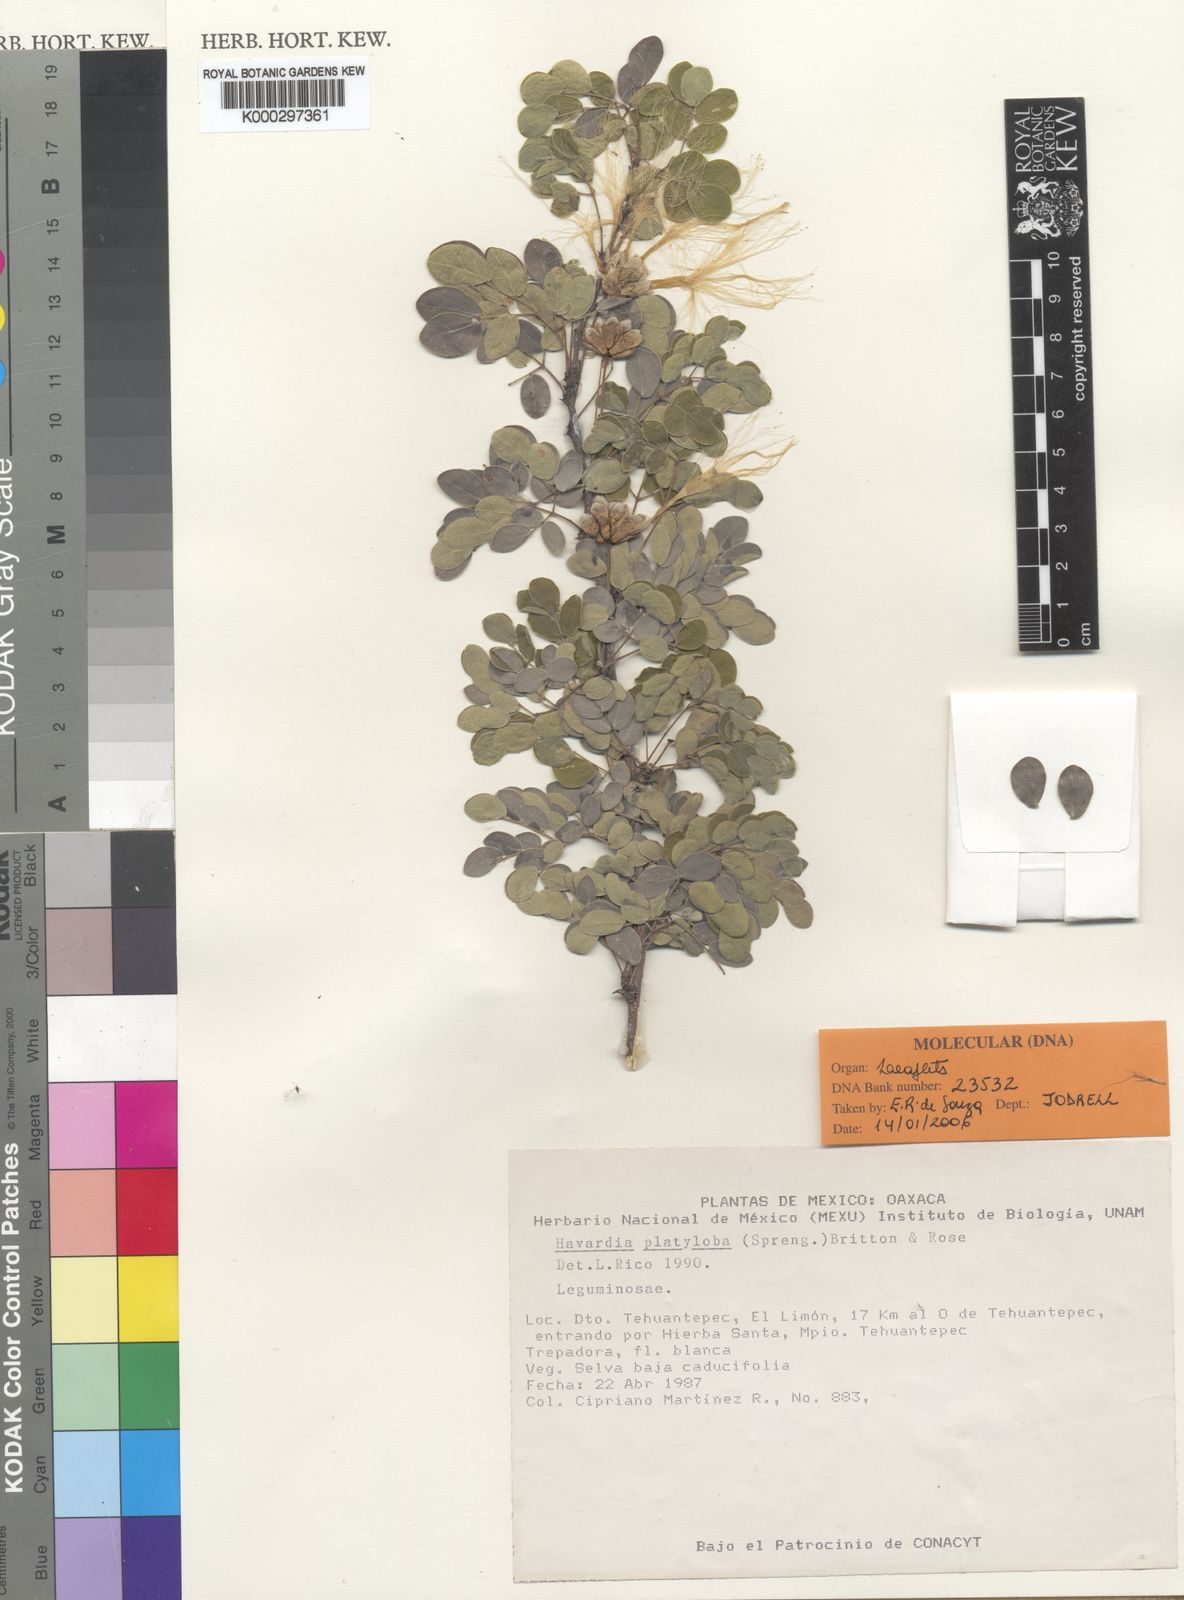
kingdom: Plantae
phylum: Tracheophyta
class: Magnoliopsida
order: Fabales
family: Fabaceae
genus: Havardia
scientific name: Havardia platyloba
